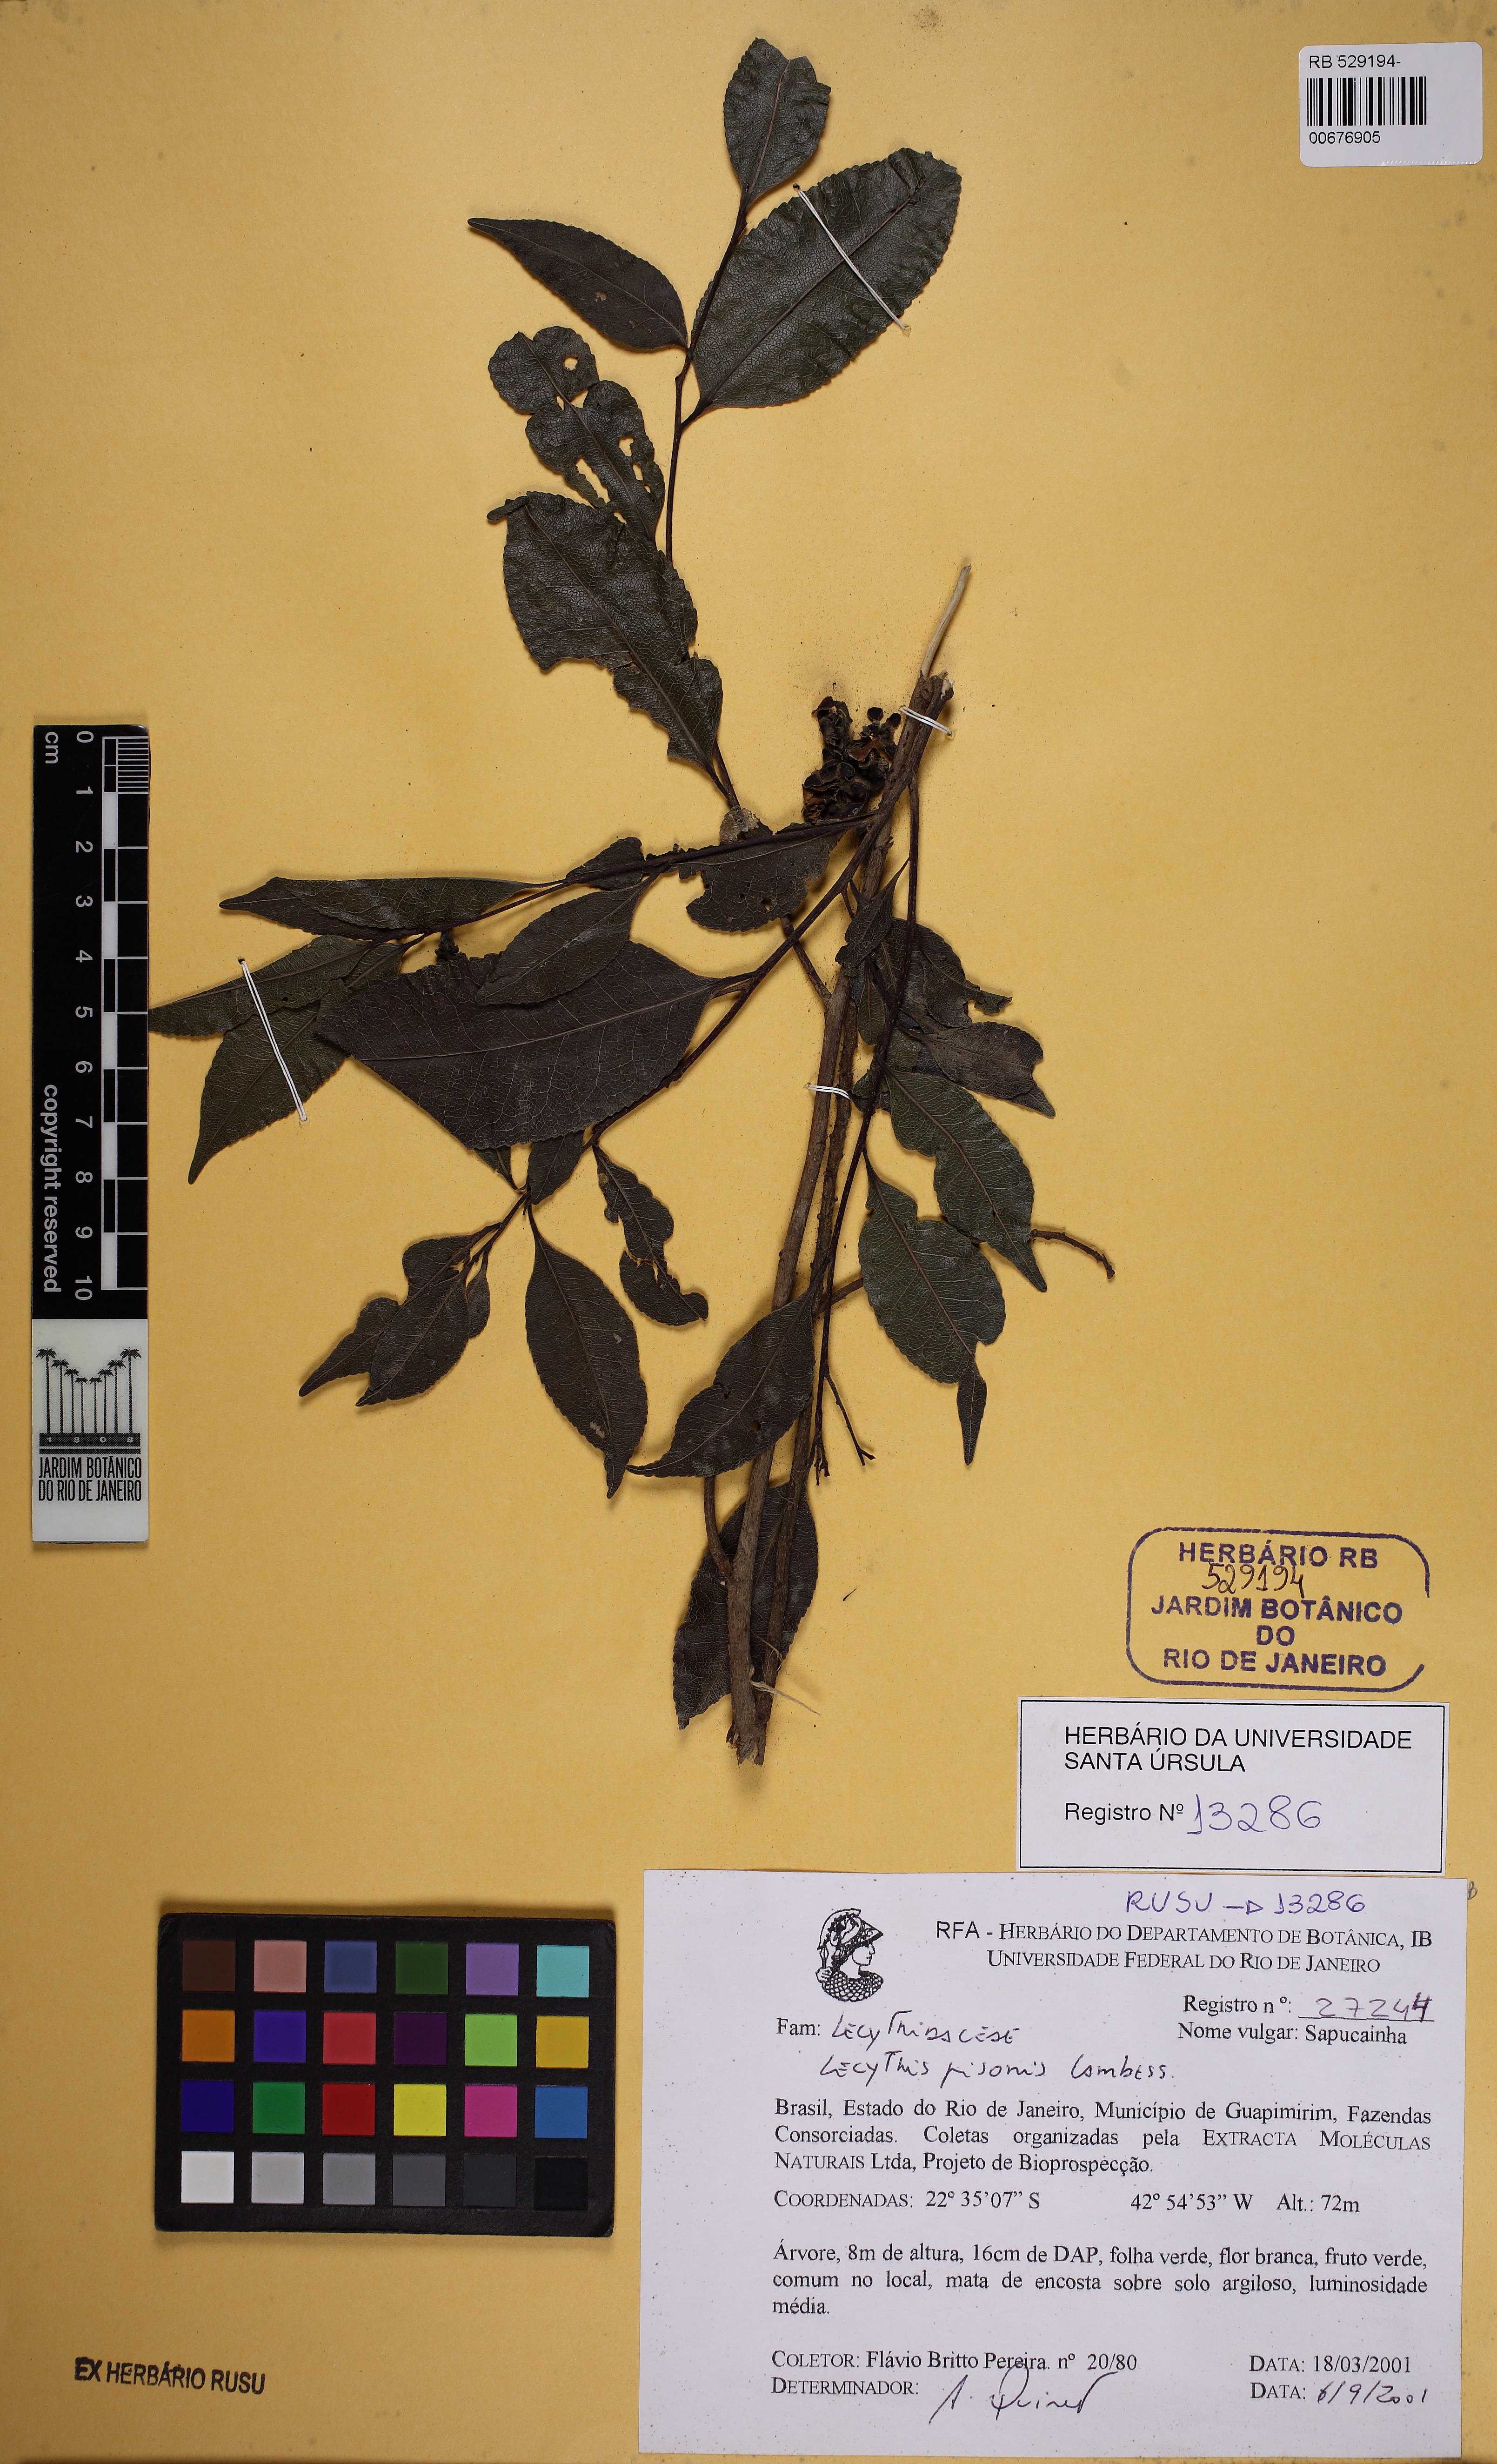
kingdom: Plantae
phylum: Tracheophyta
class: Magnoliopsida
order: Ericales
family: Lecythidaceae
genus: Lecythis
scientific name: Lecythis pisonis
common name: Paradise-nut
